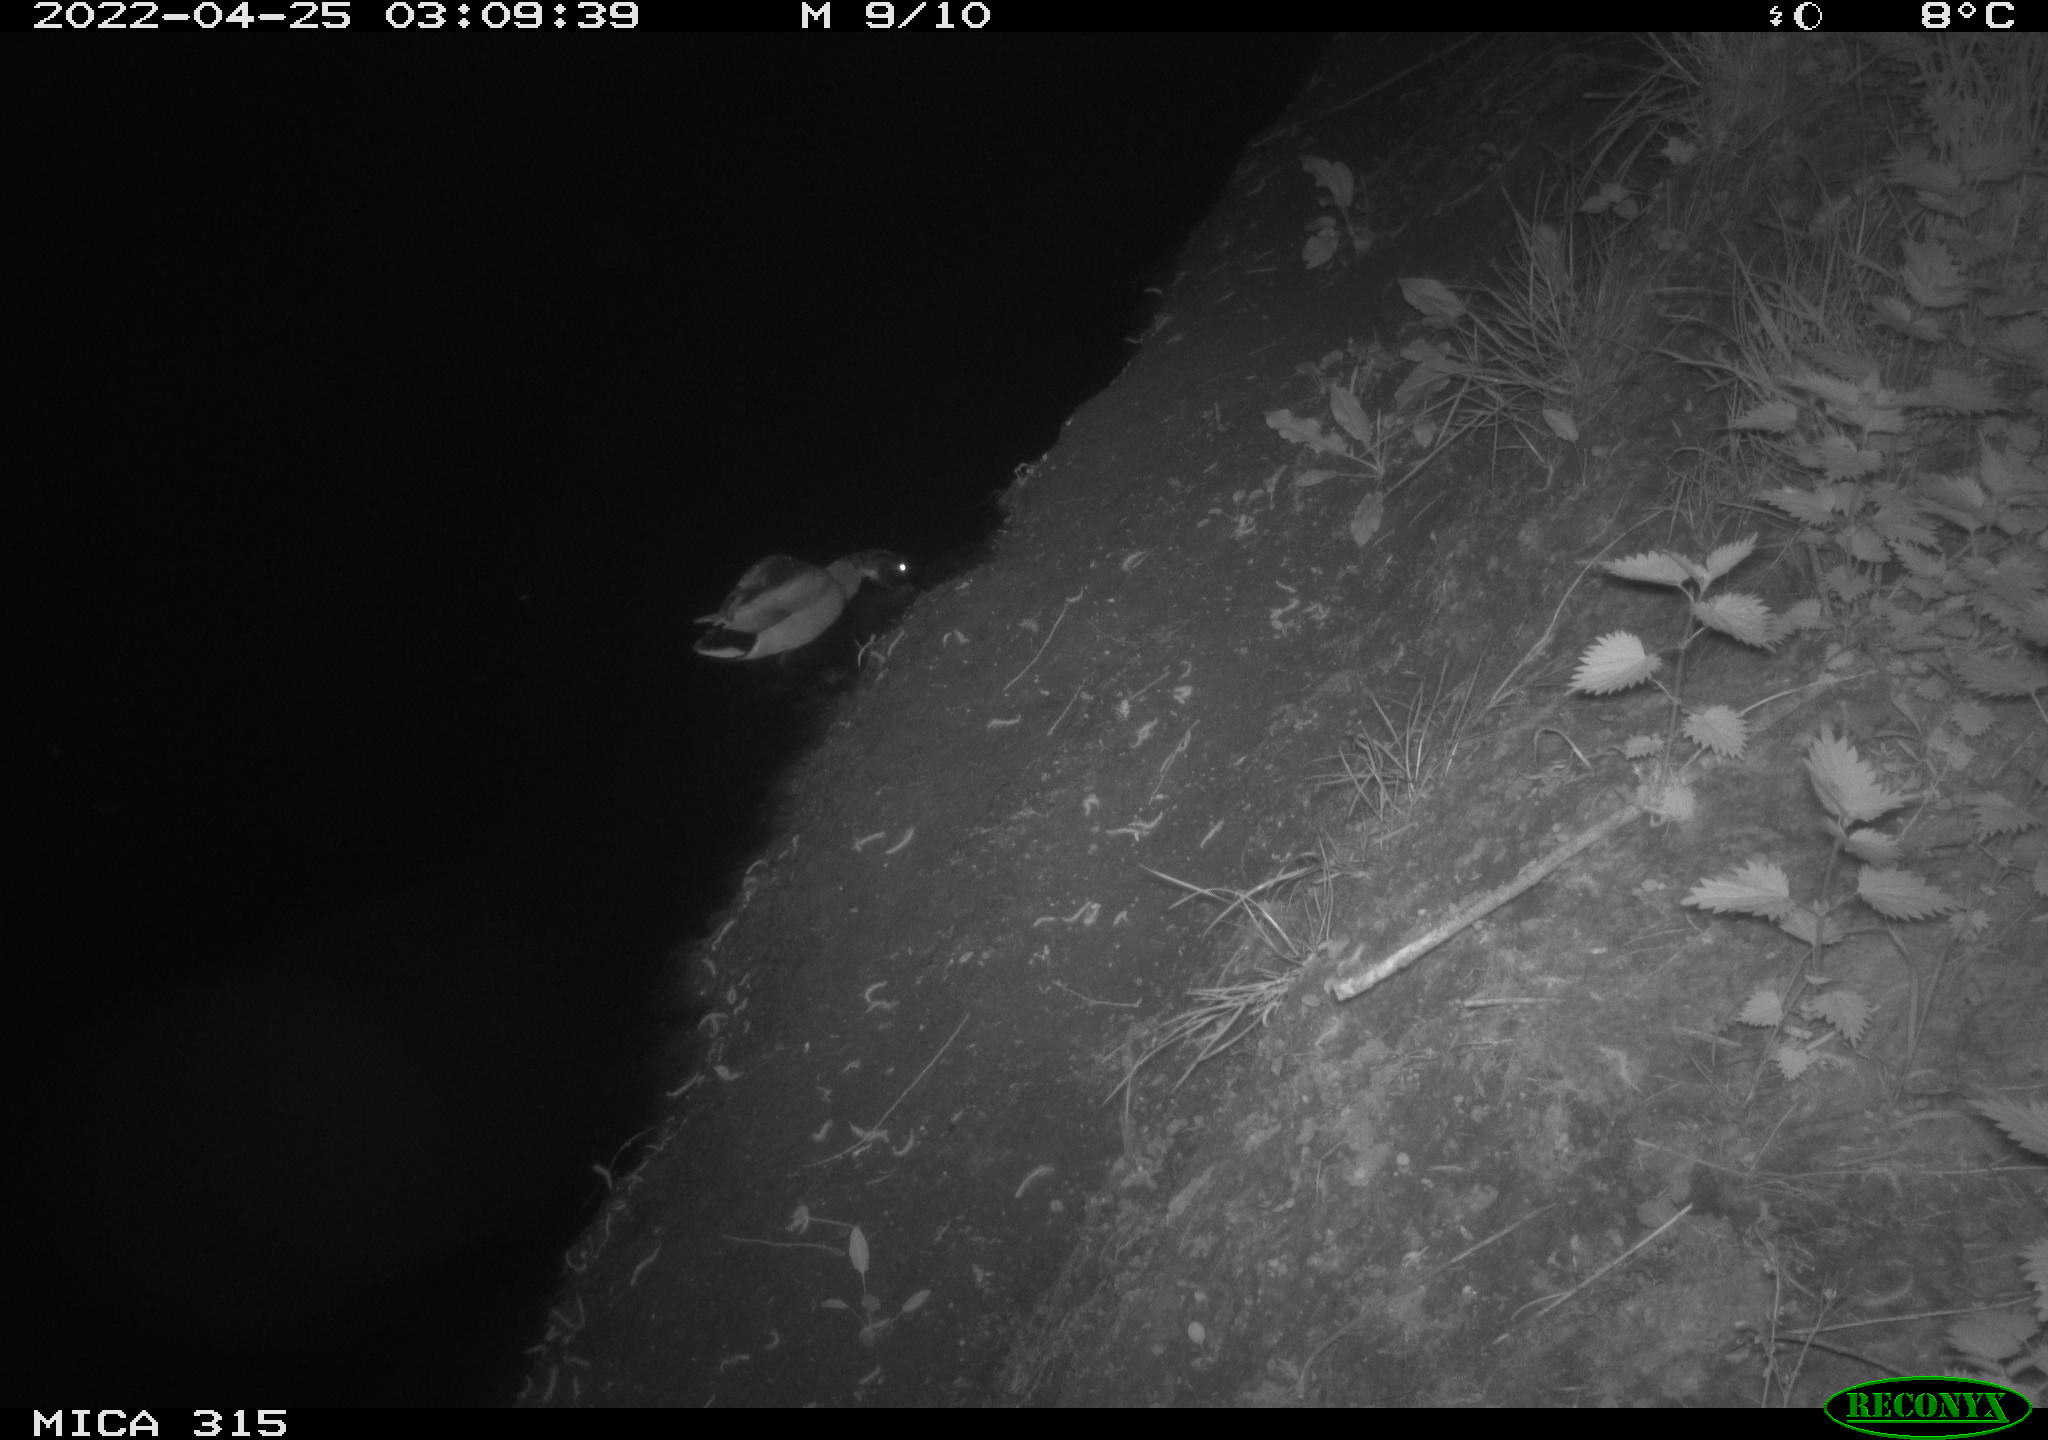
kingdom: Animalia
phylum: Chordata
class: Aves
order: Anseriformes
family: Anatidae
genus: Anas
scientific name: Anas platyrhynchos
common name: Mallard
